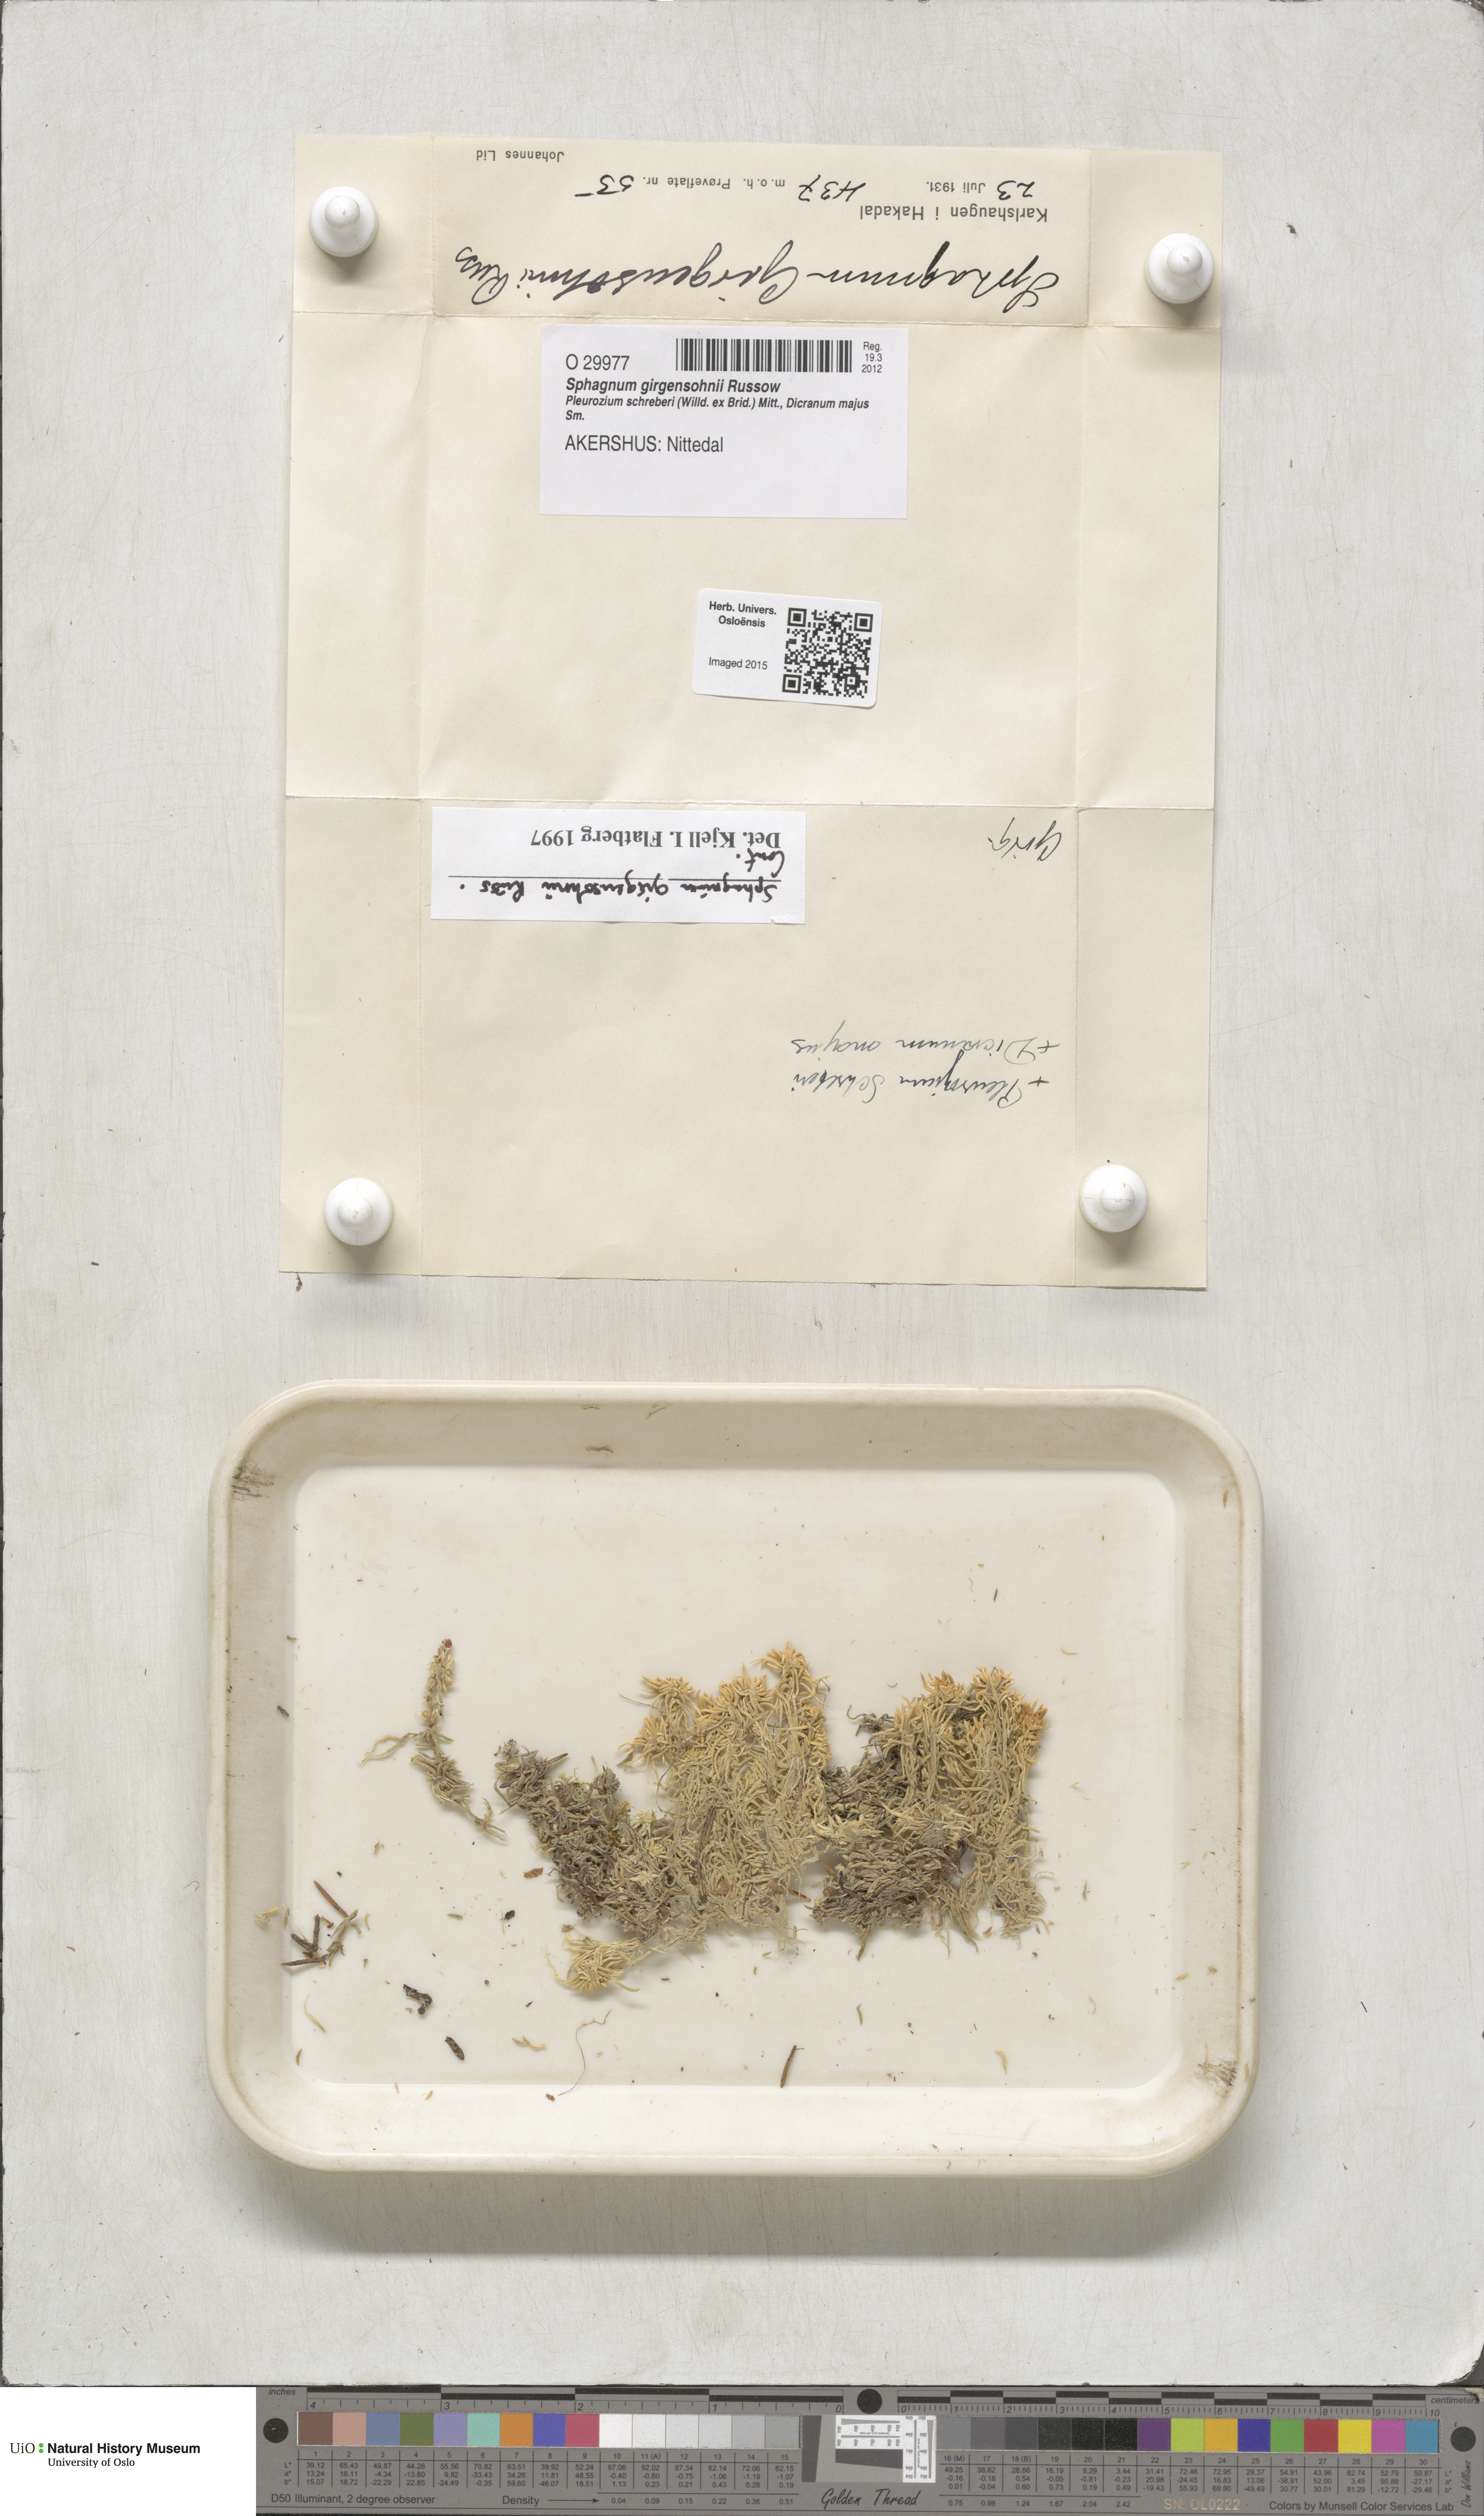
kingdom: Plantae
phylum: Bryophyta
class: Sphagnopsida
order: Sphagnales
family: Sphagnaceae
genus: Sphagnum
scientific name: Sphagnum girgensohnii
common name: Girgensohn's peat moss
